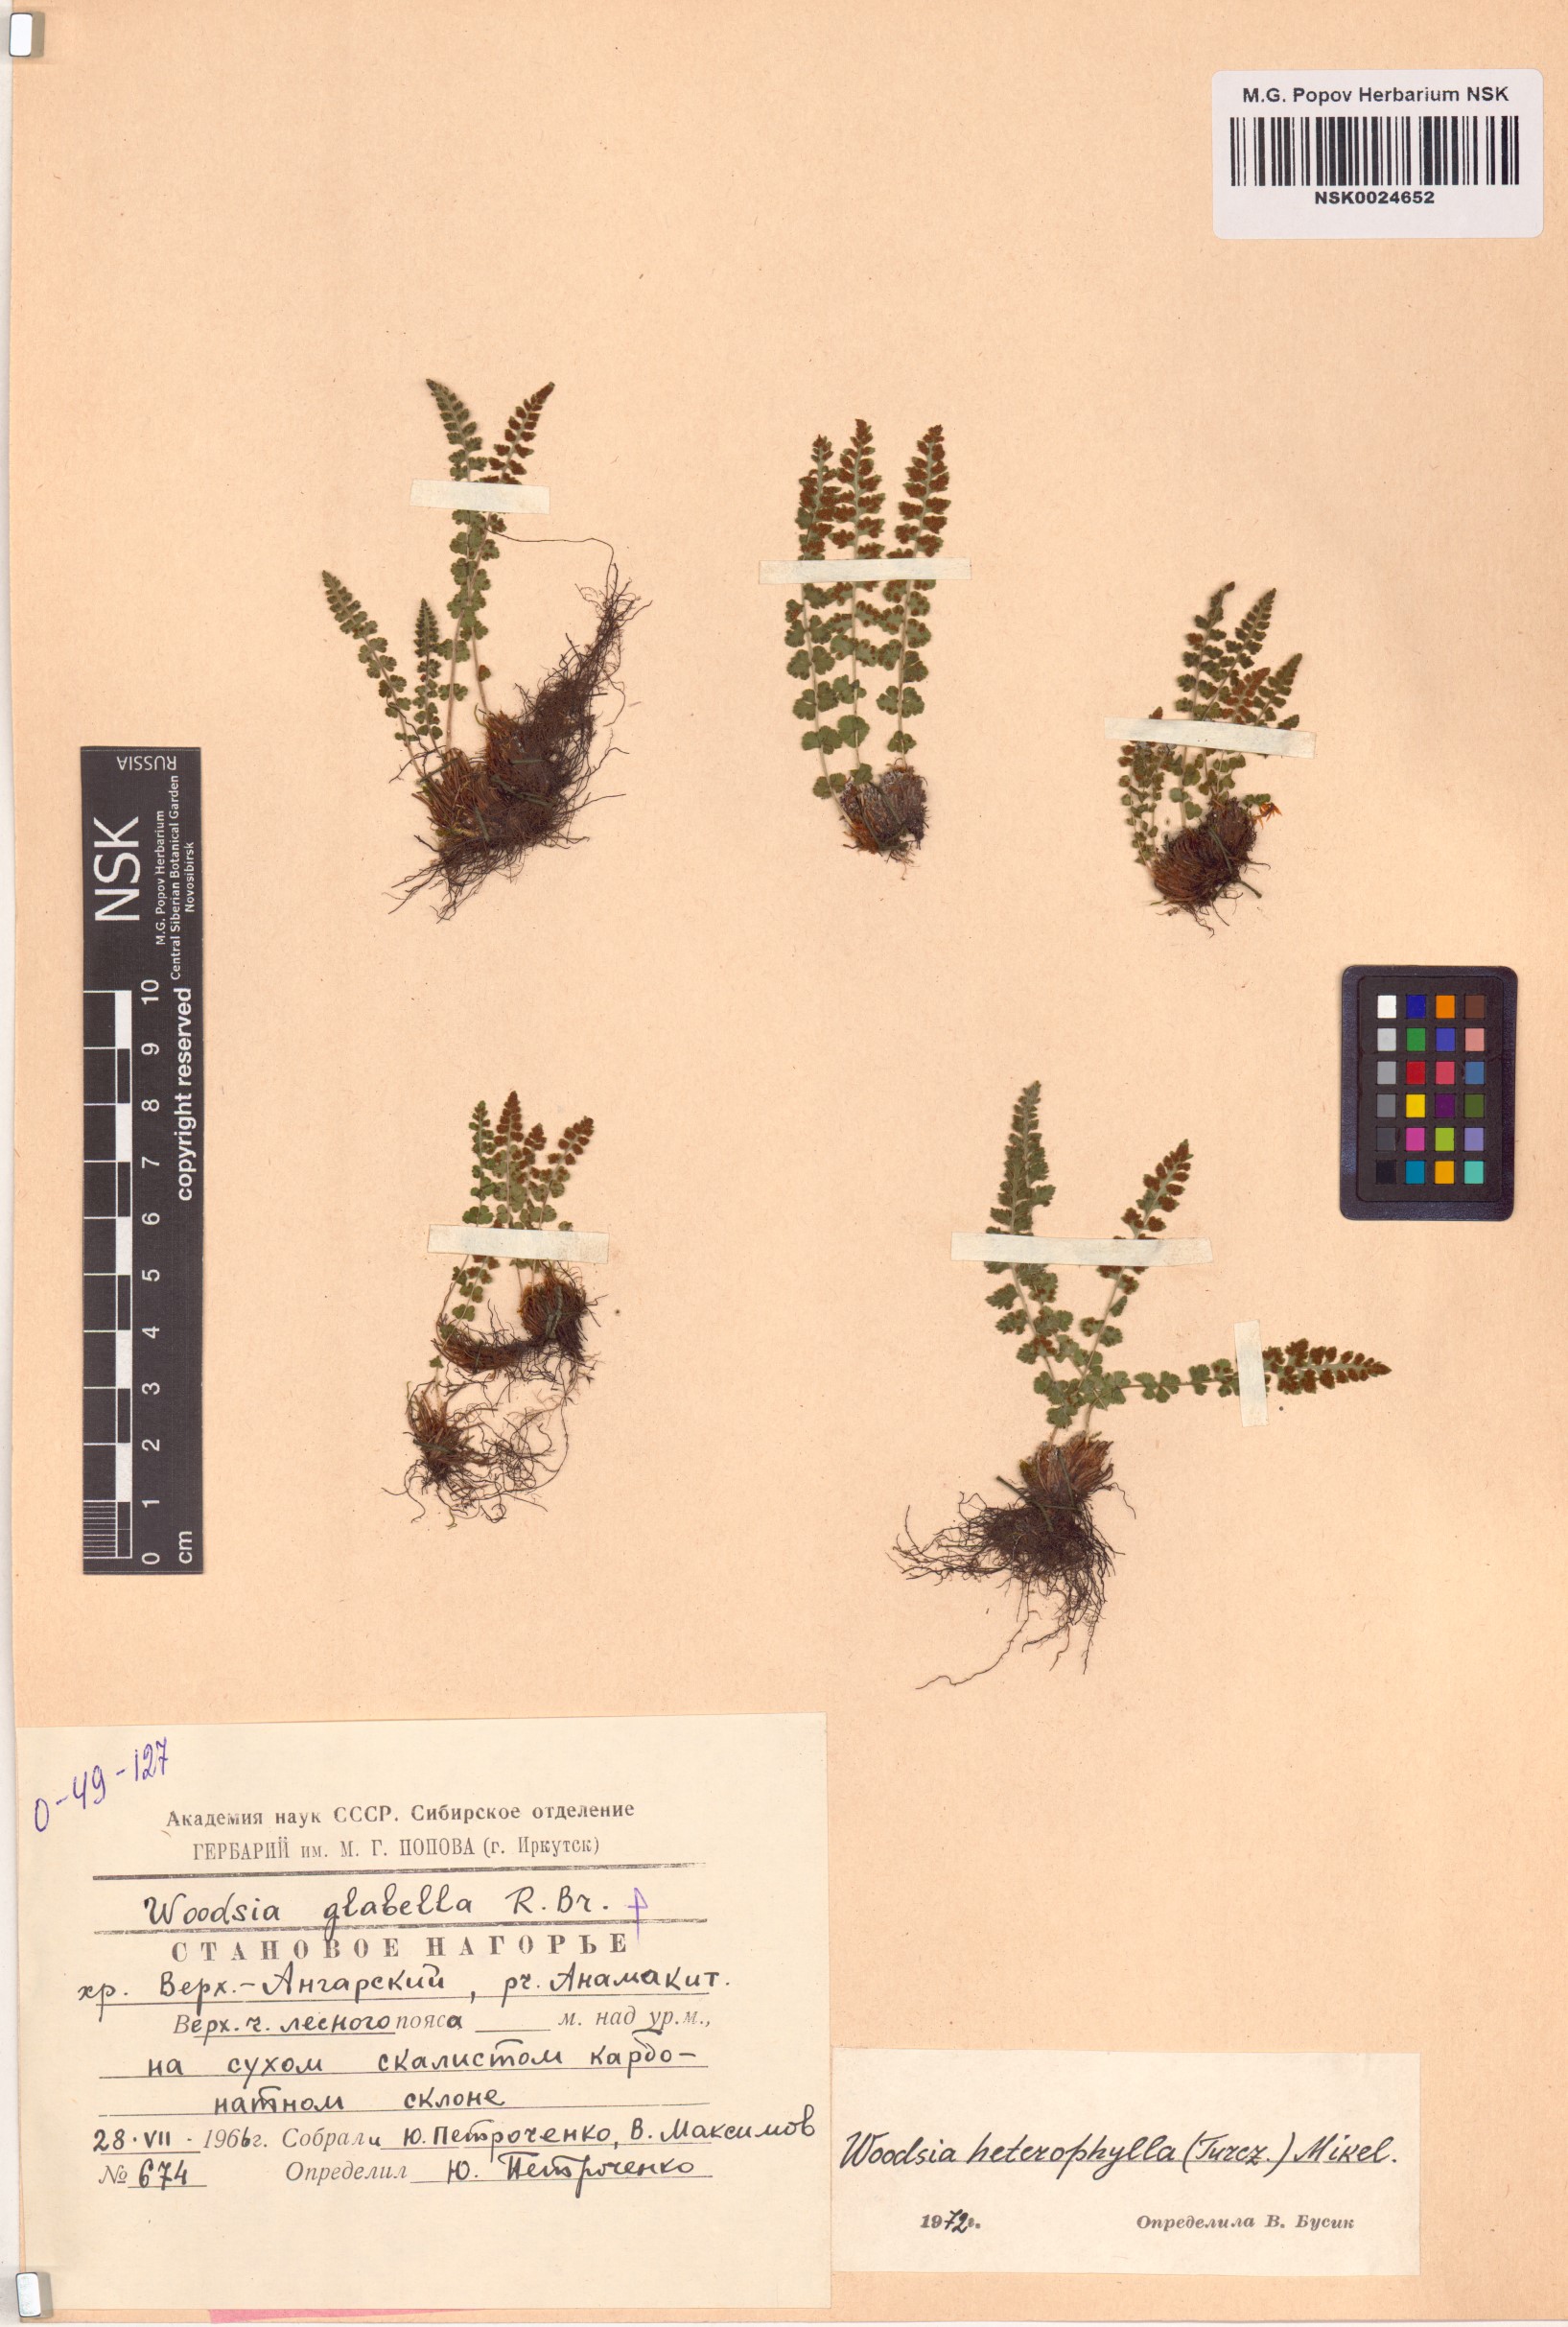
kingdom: Plantae
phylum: Tracheophyta
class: Polypodiopsida
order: Polypodiales
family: Woodsiaceae
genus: Woodsia
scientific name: Woodsia pulchella
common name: Graceful woodsia
